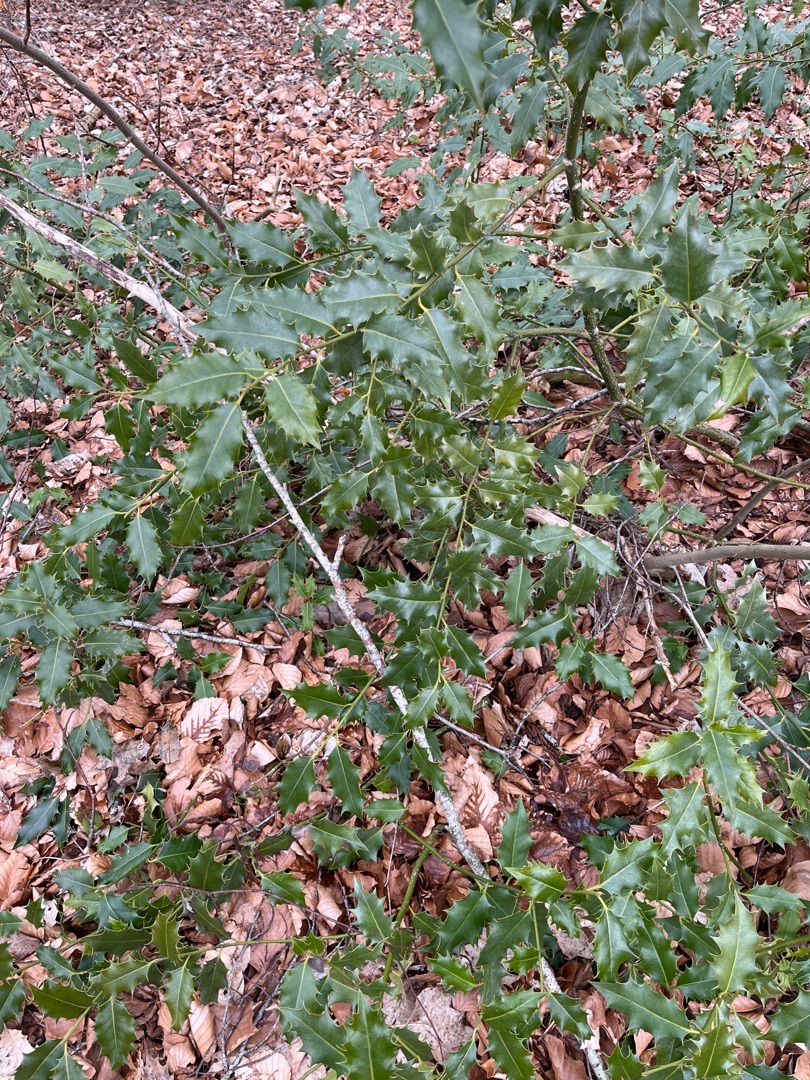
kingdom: Plantae
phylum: Tracheophyta
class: Magnoliopsida
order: Aquifoliales
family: Aquifoliaceae
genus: Ilex
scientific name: Ilex aquifolium
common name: Kristtorn
